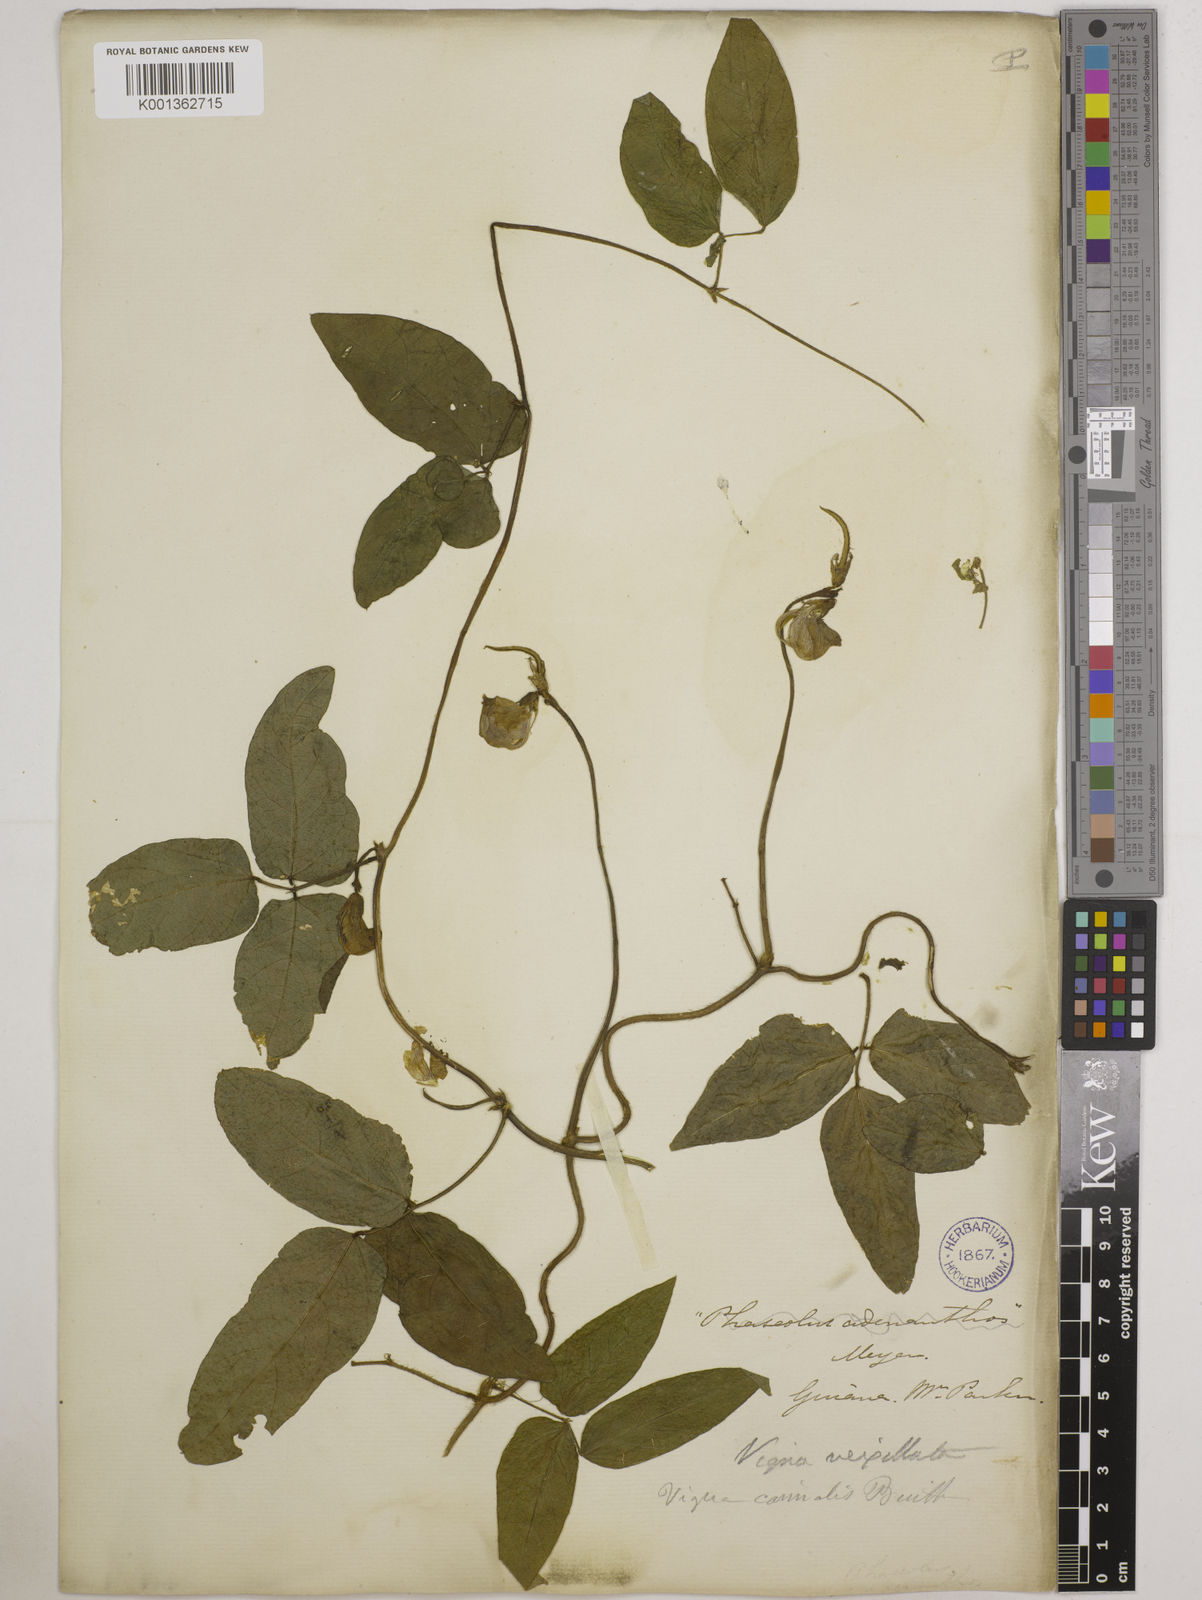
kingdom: Plantae
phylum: Tracheophyta
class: Magnoliopsida
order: Fabales
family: Fabaceae
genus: Vigna
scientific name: Vigna vexillata
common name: Zombi pea
